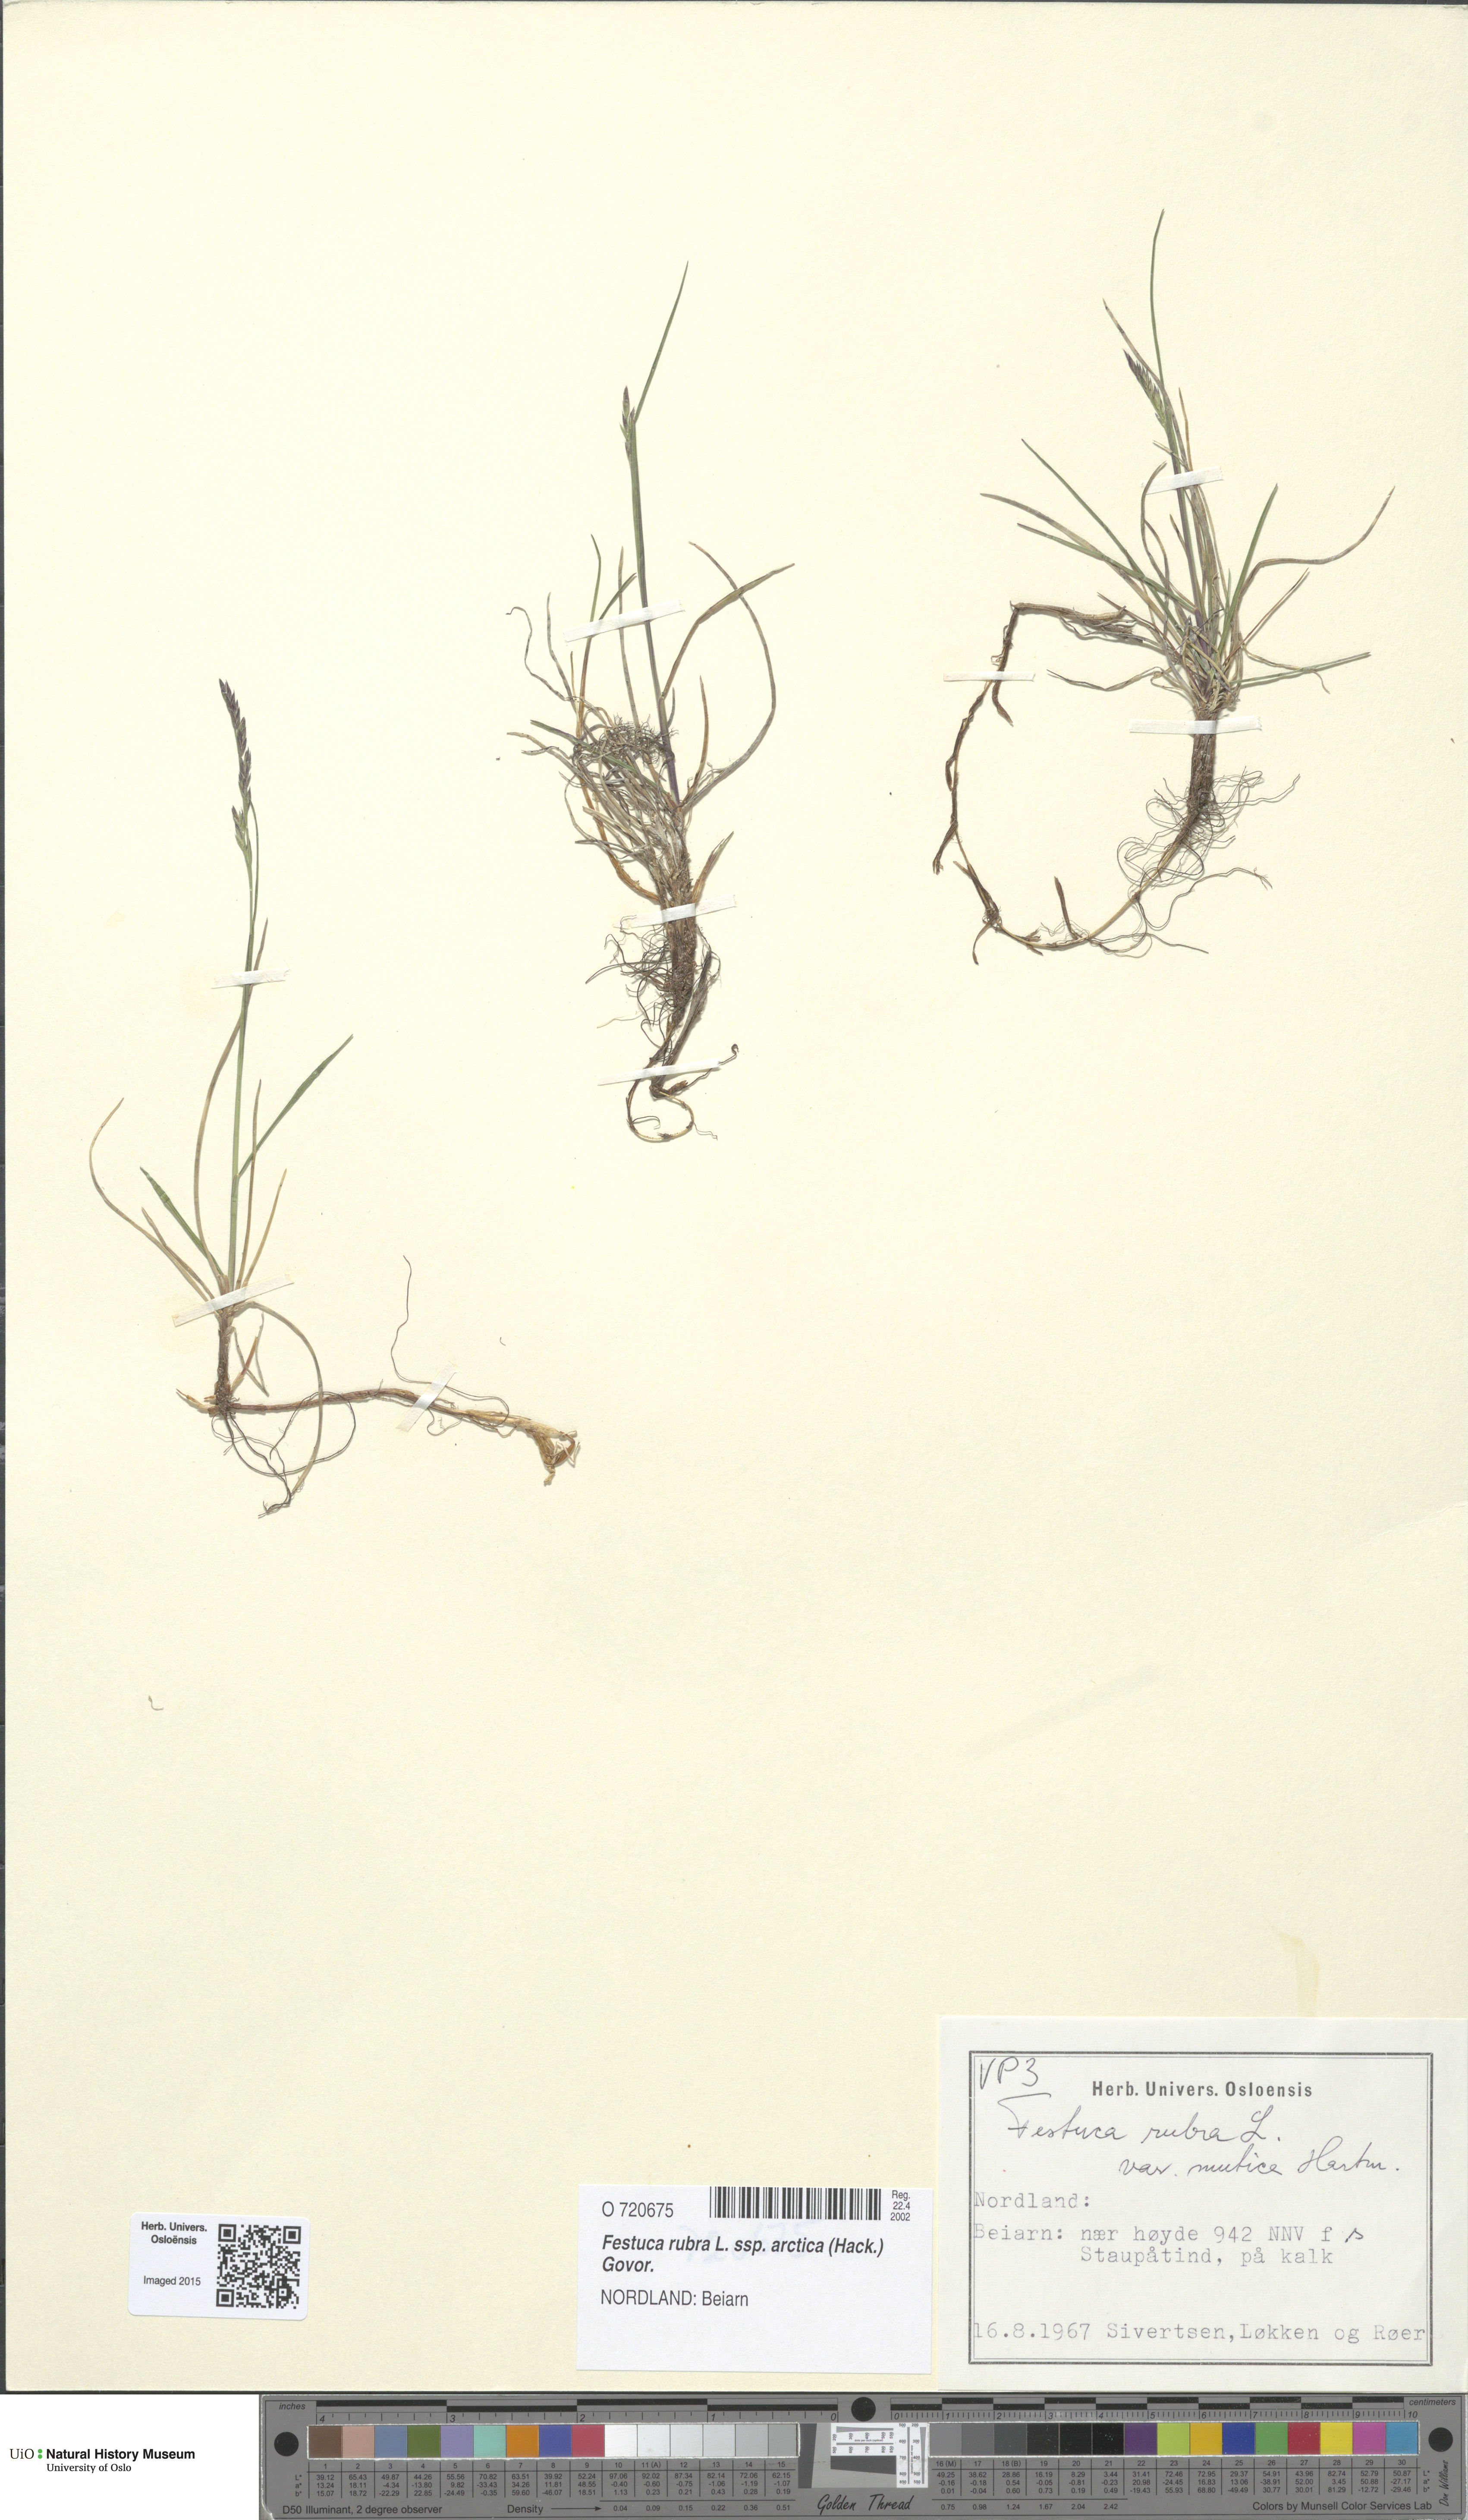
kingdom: Plantae
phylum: Tracheophyta
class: Liliopsida
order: Poales
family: Poaceae
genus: Festuca
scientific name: Festuca richardsonii
